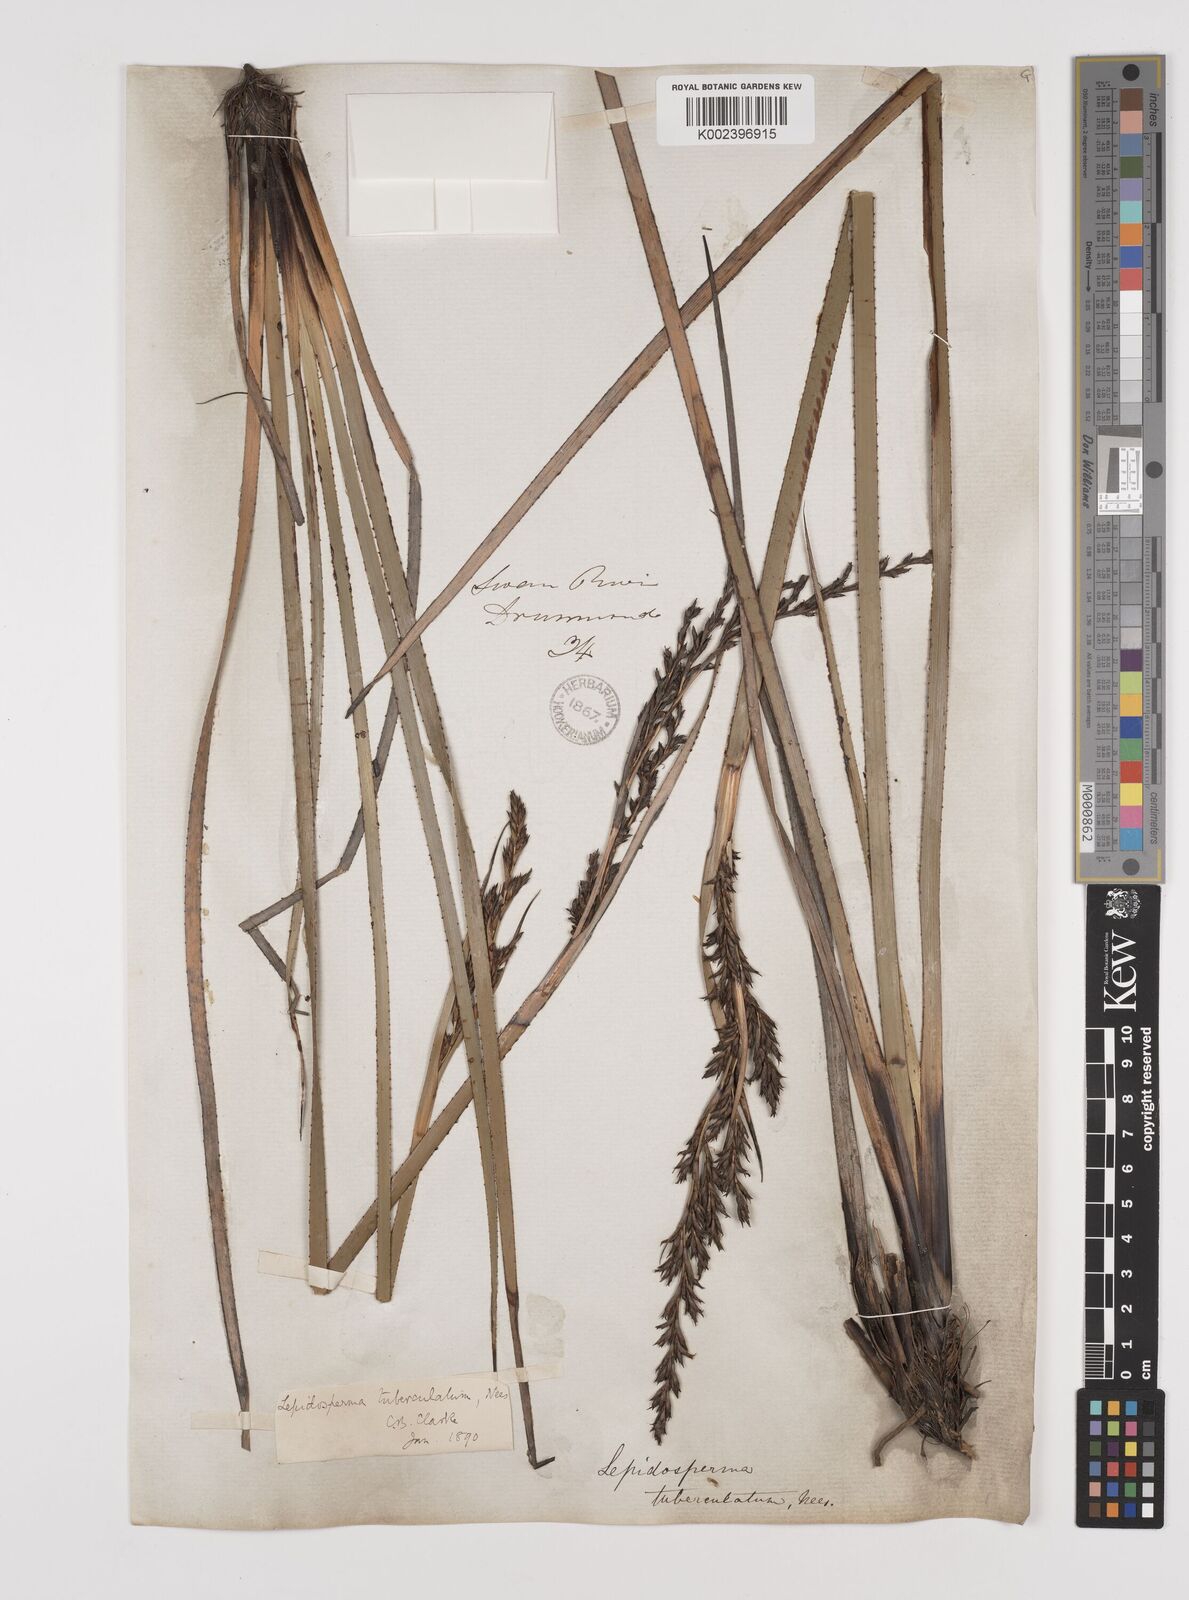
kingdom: Plantae
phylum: Tracheophyta
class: Liliopsida
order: Poales
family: Cyperaceae
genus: Lepidosperma
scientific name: Lepidosperma tuberculatum
